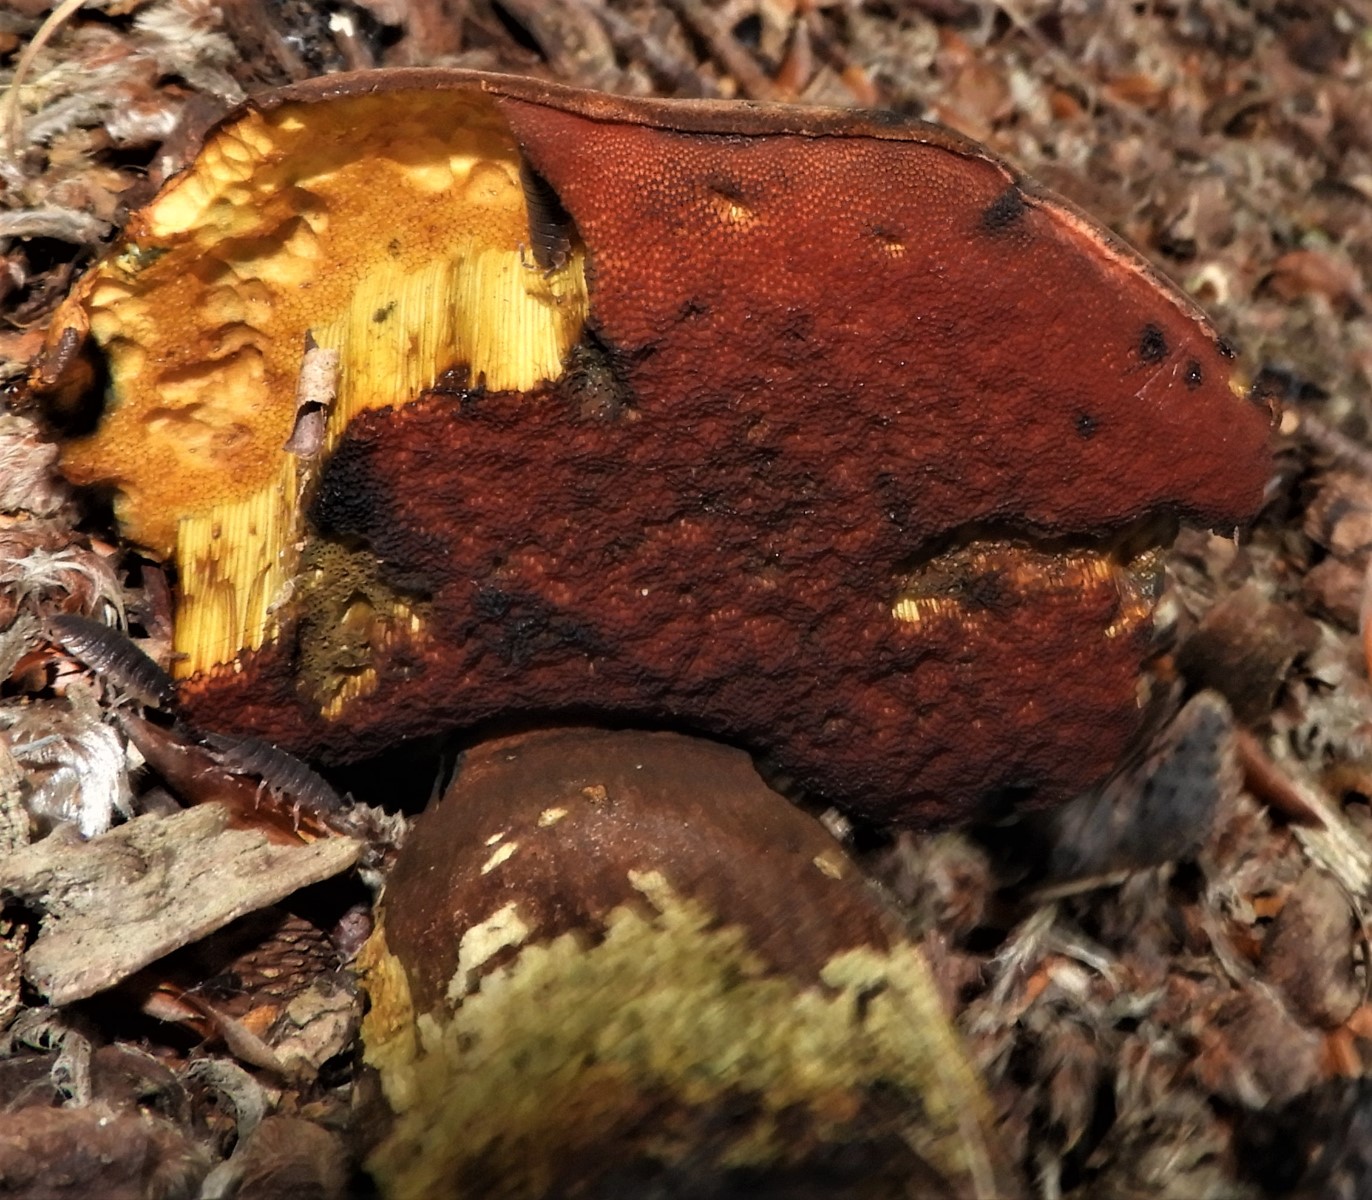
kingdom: Fungi
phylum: Basidiomycota
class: Agaricomycetes
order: Boletales
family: Boletaceae
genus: Neoboletus
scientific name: Neoboletus erythropus
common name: punktstokket indigorørhat
